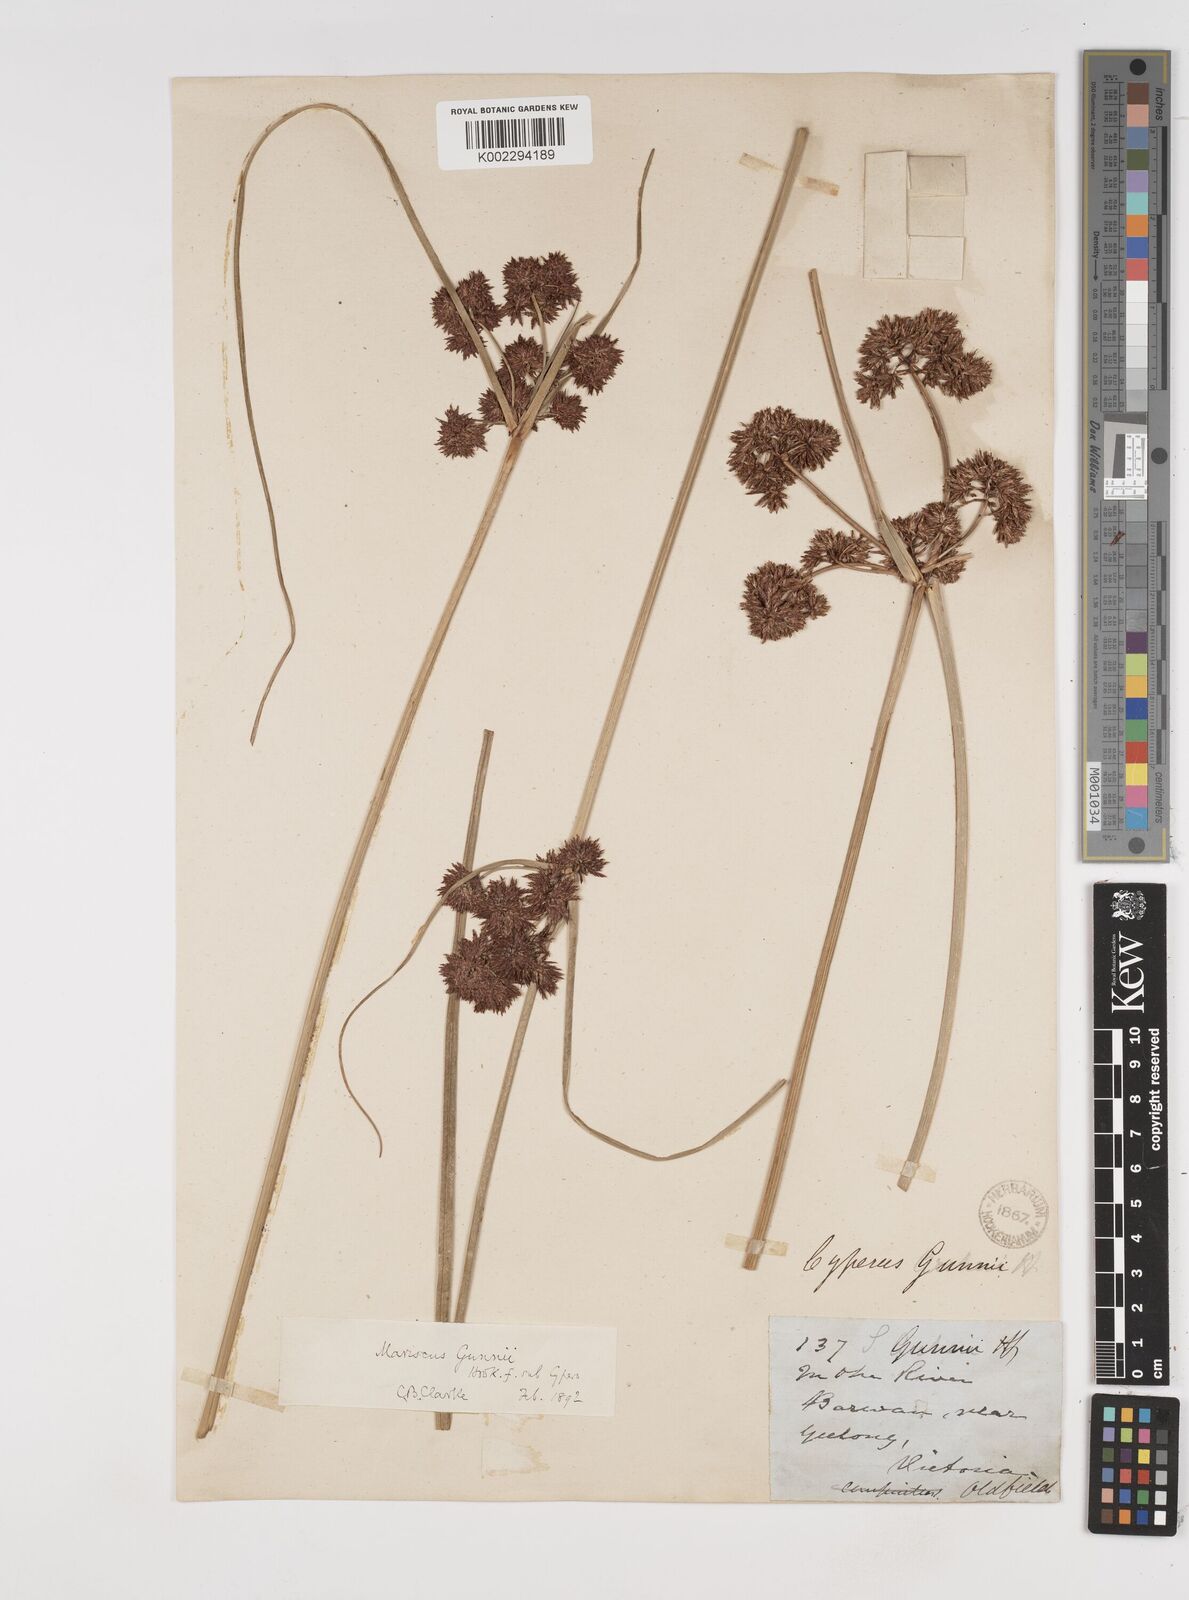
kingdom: Plantae
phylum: Tracheophyta
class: Liliopsida
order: Poales
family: Cyperaceae
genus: Cyperus
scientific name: Cyperus gunnii
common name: Flecked flat-sedge
